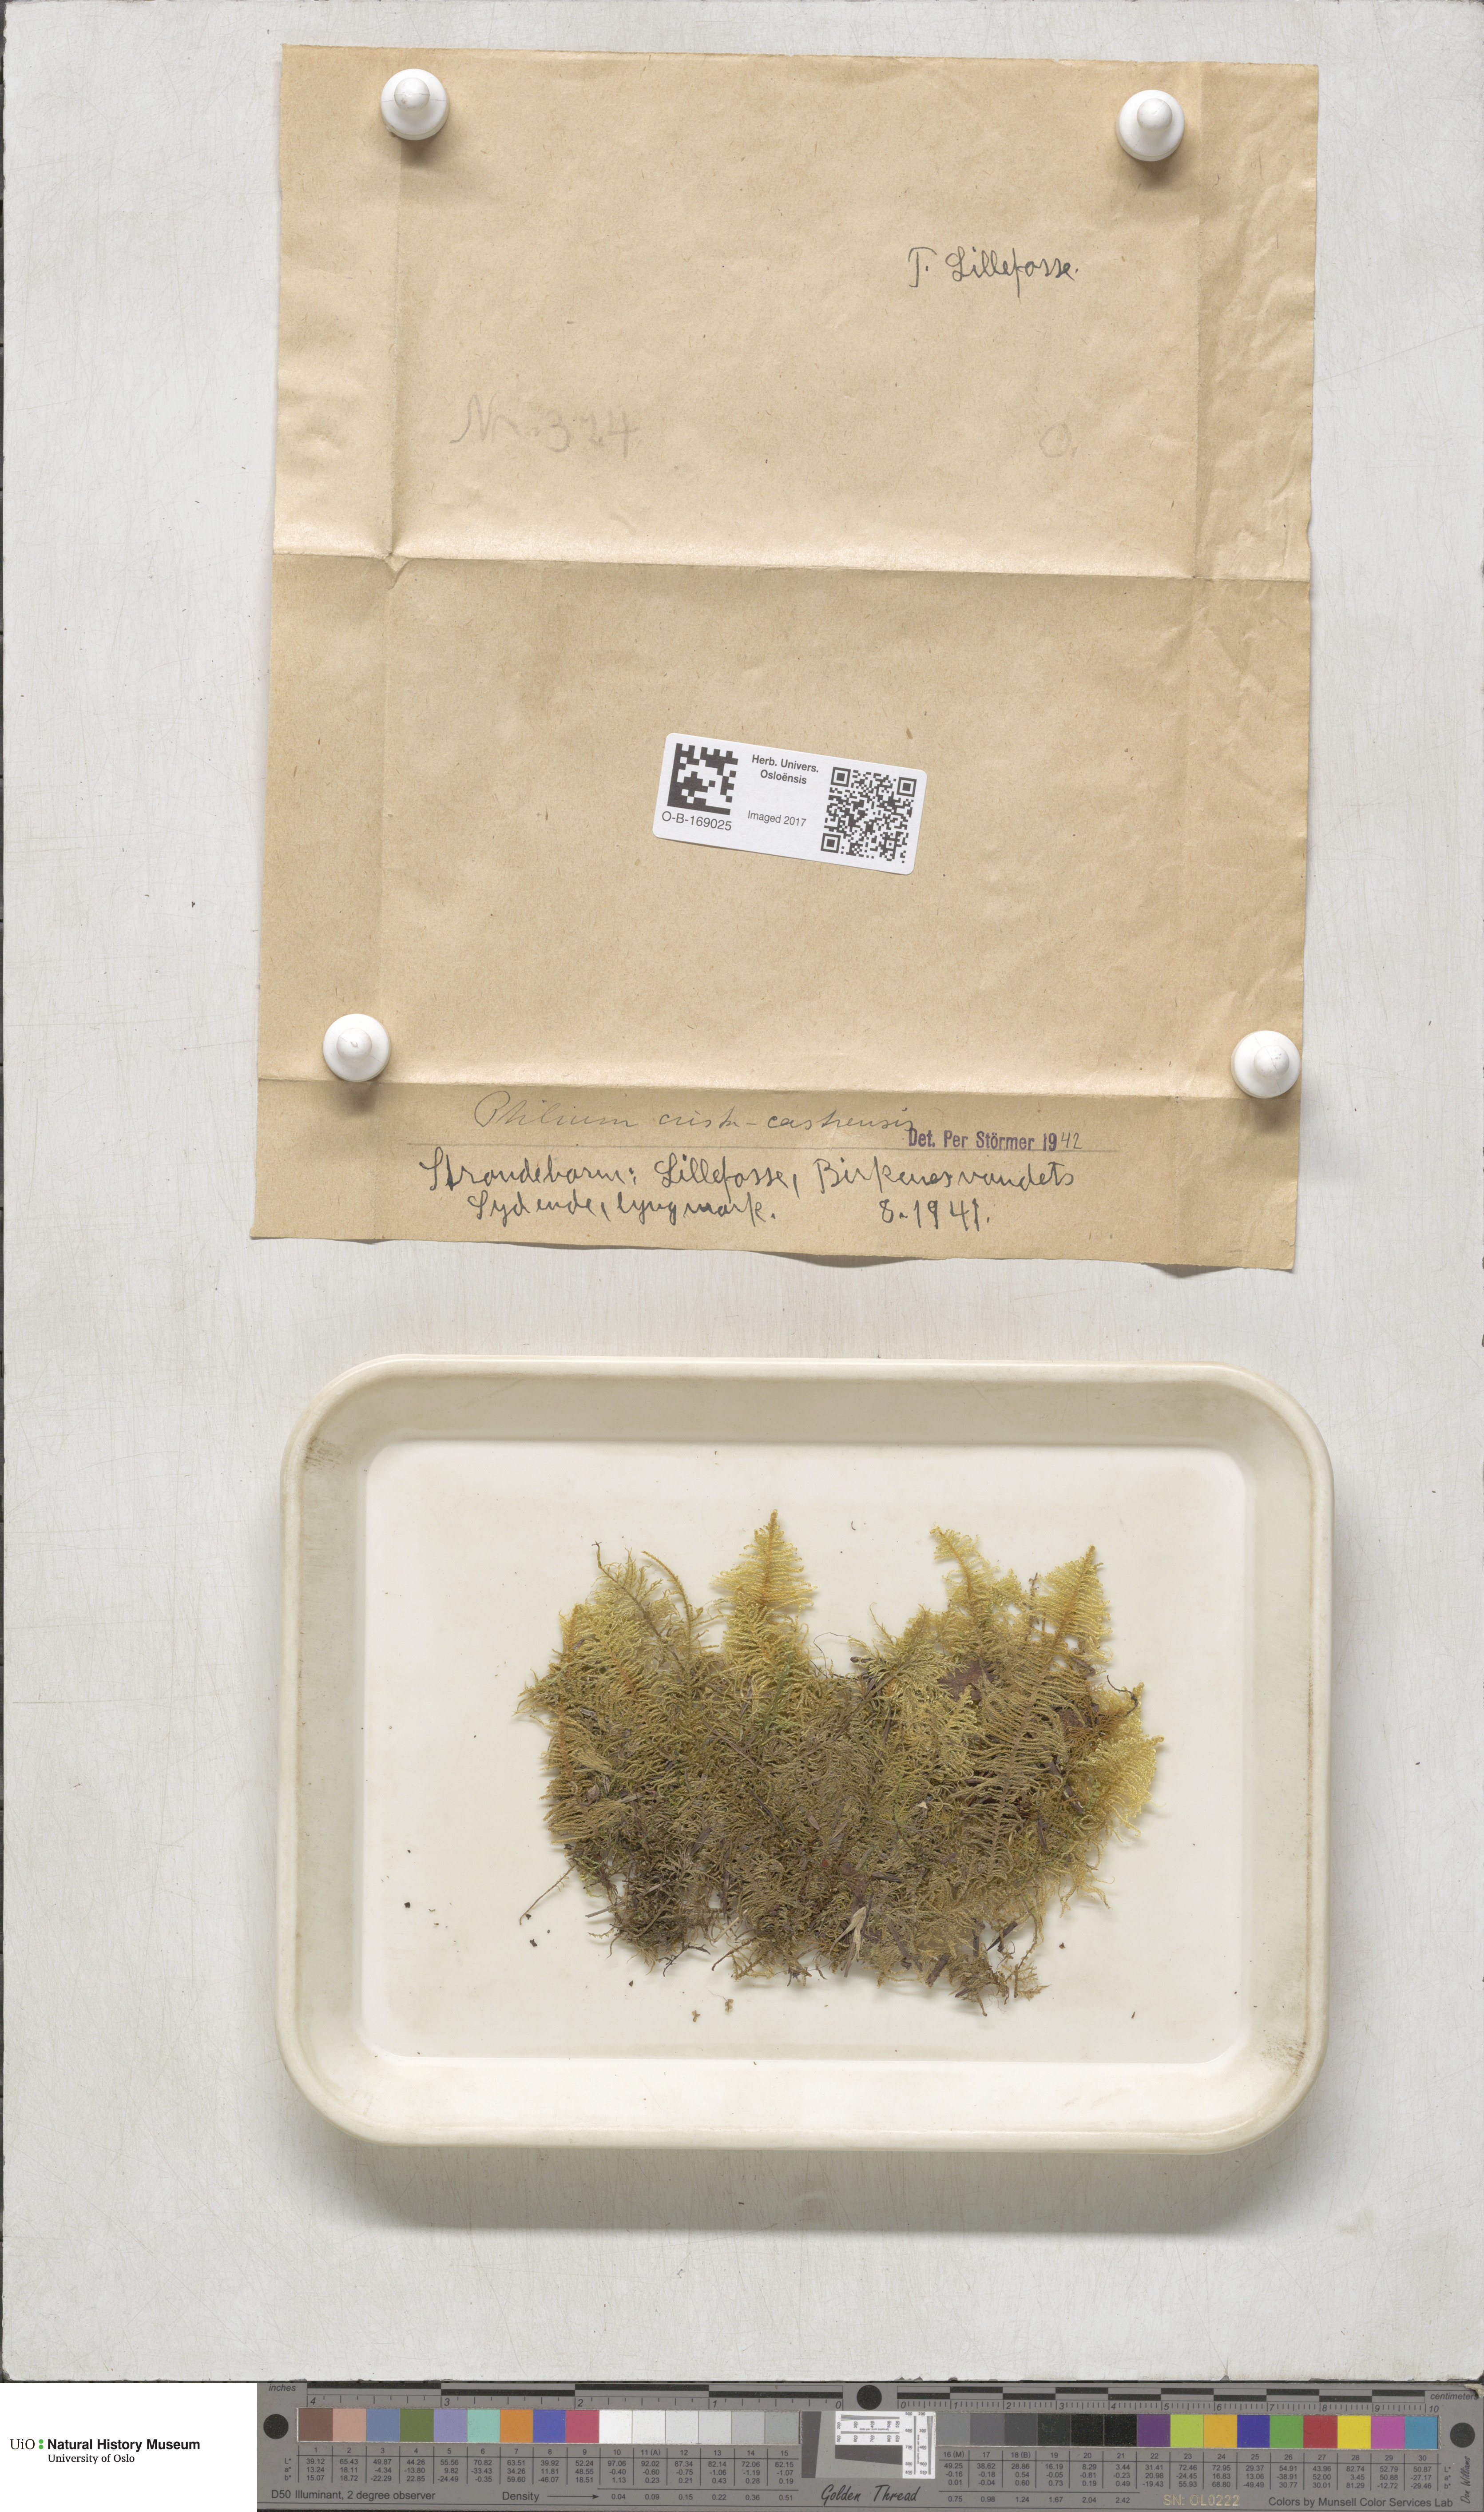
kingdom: Plantae
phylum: Bryophyta
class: Bryopsida
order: Hypnales
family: Pylaisiaceae
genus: Ptilium
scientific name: Ptilium crista-castrensis
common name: Knight's plume moss
